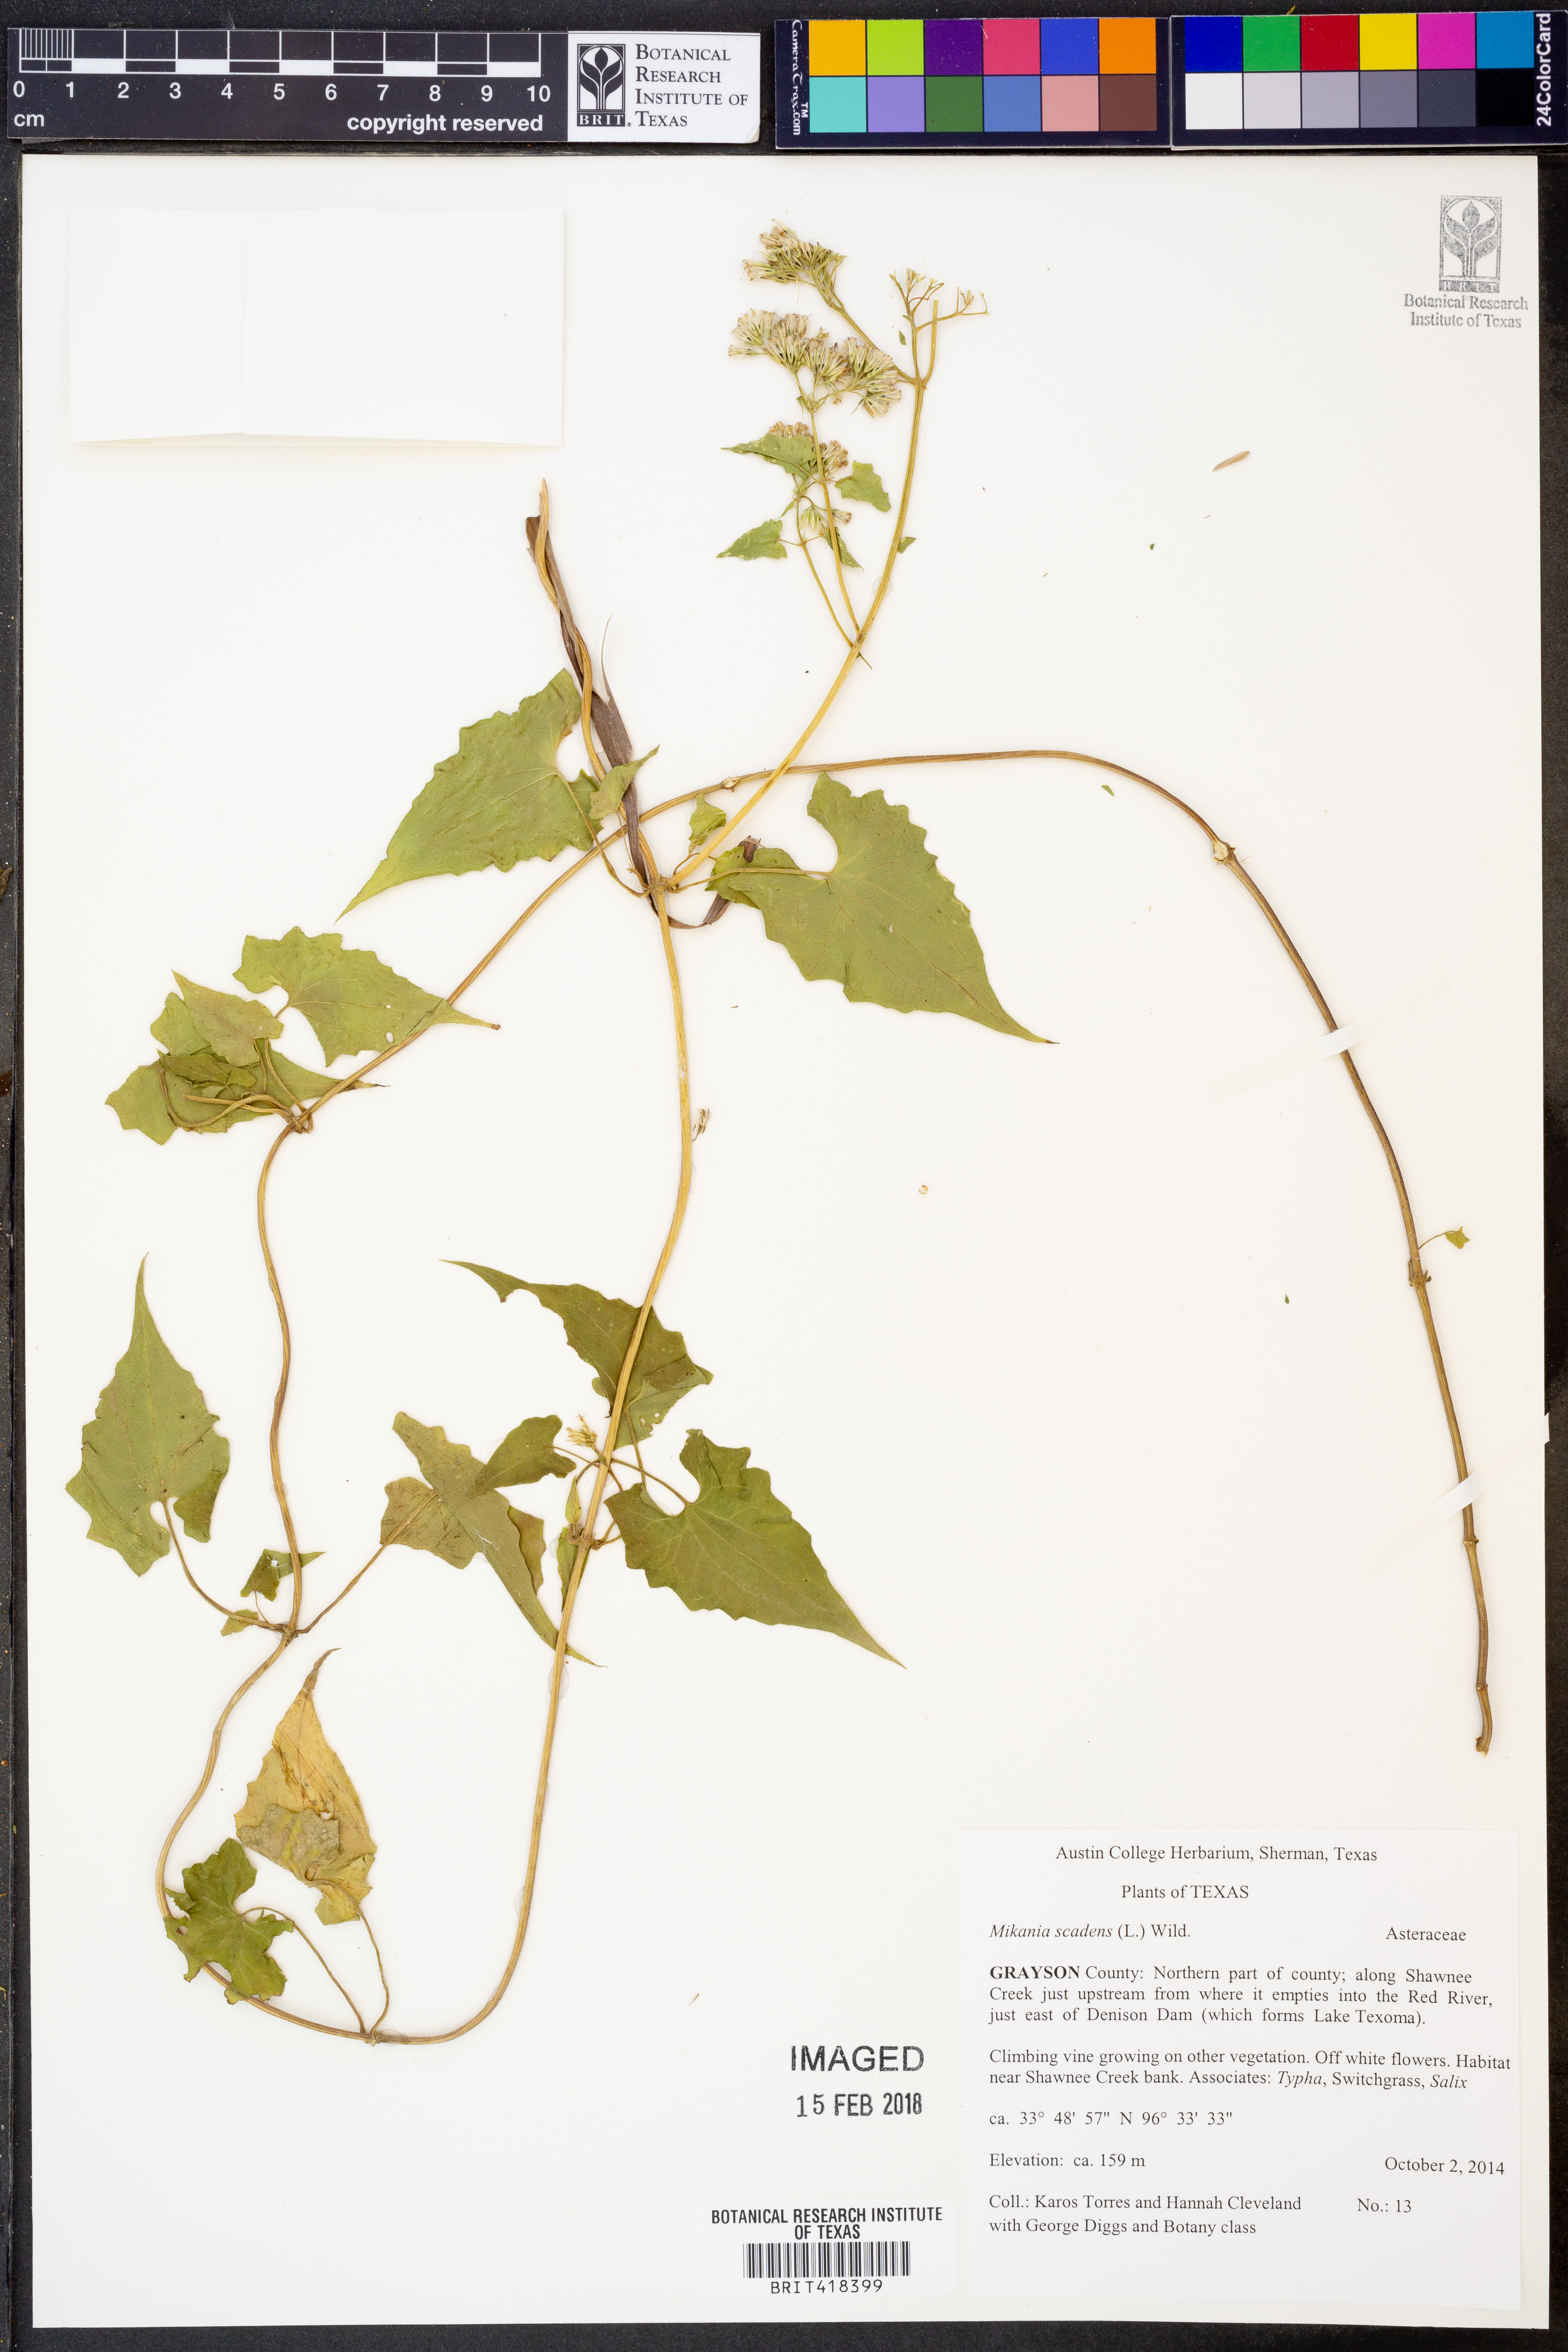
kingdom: Plantae
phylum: Tracheophyta
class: Magnoliopsida
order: Asterales
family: Asteraceae
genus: Mikania
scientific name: Mikania scandens
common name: Climbing hempvine
